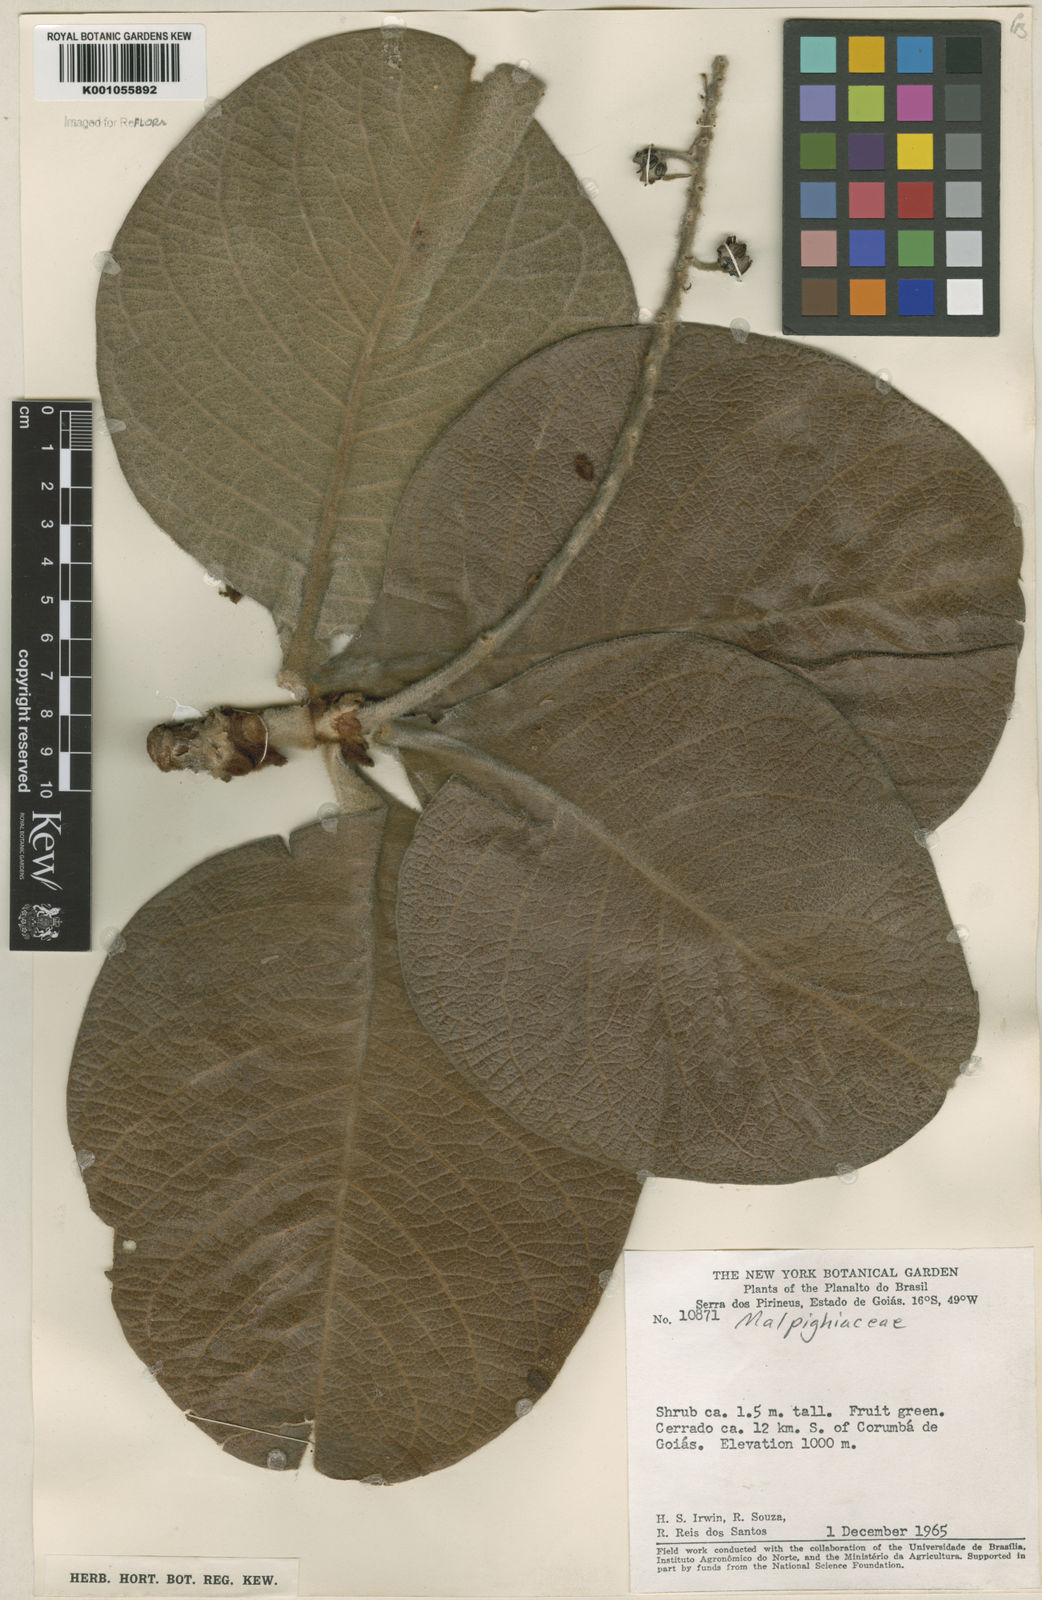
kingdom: Plantae
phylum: Tracheophyta
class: Magnoliopsida
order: Malpighiales
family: Malpighiaceae
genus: Byrsonima
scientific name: Byrsonima verbascifolia
